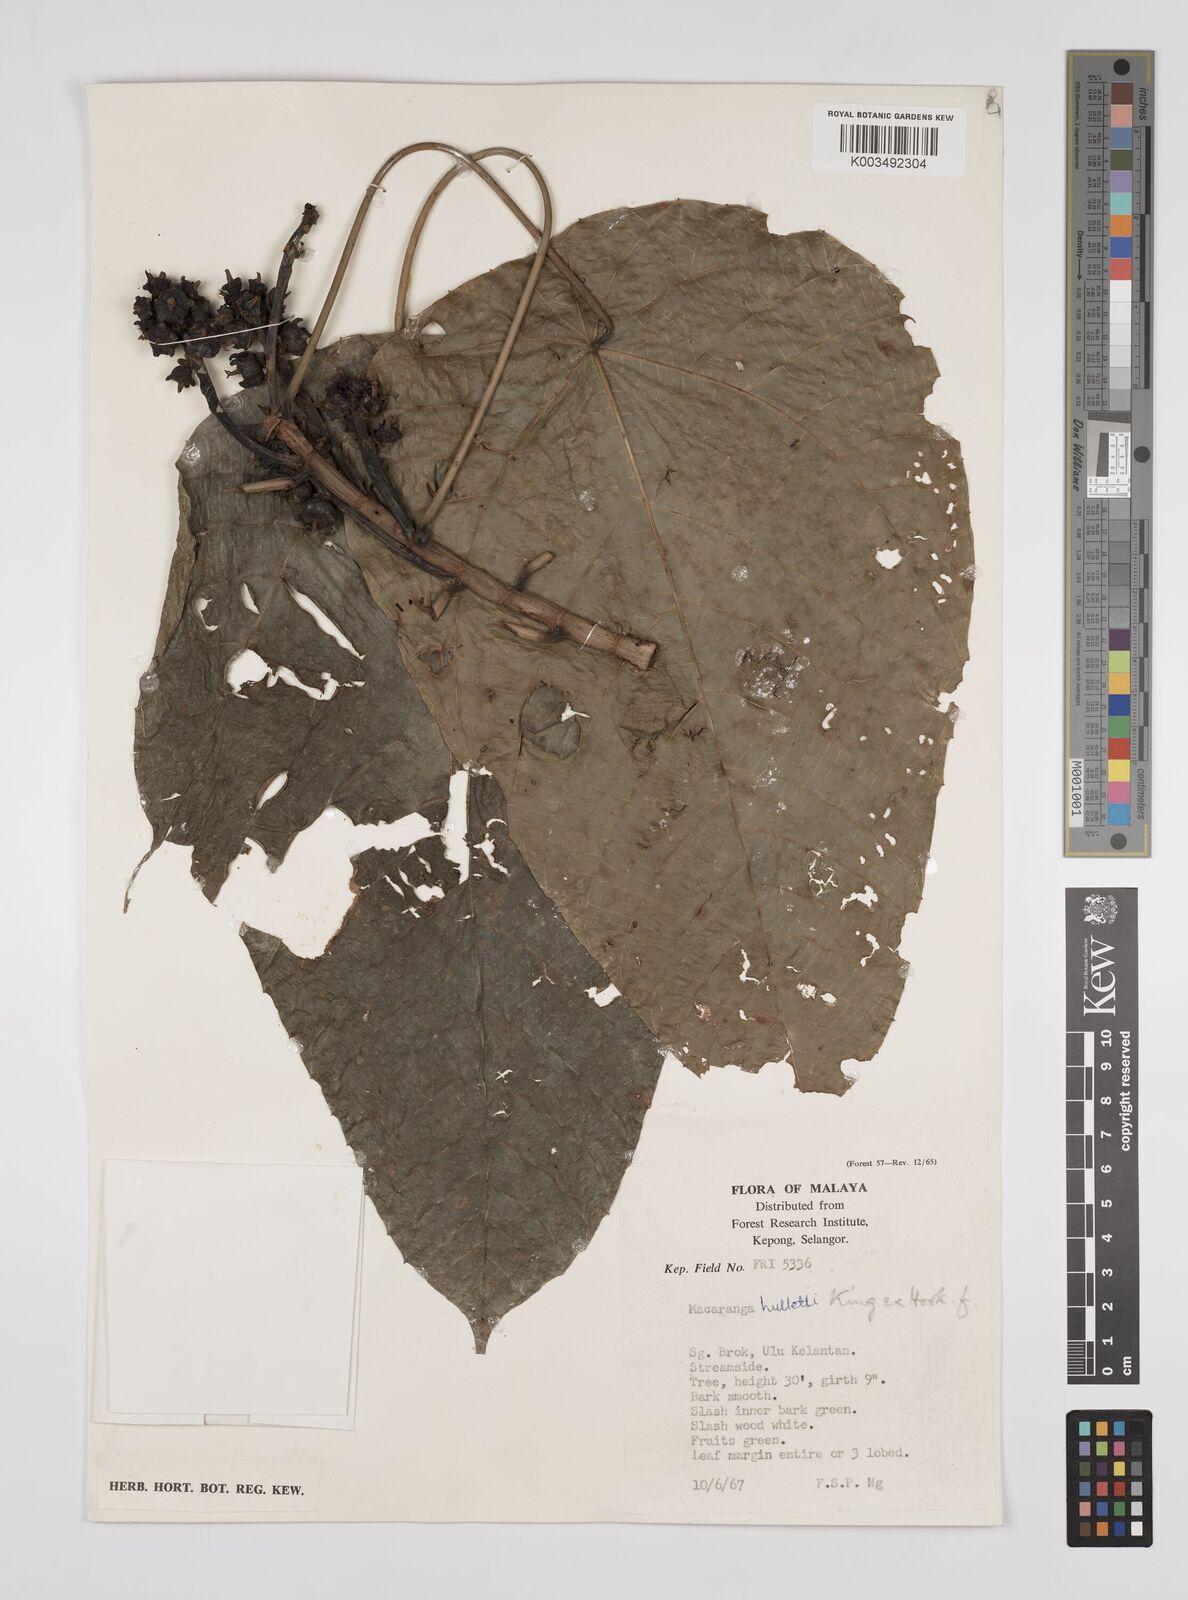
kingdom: Plantae
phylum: Tracheophyta
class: Magnoliopsida
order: Malpighiales
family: Euphorbiaceae
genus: Macaranga
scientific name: Macaranga hullettii
